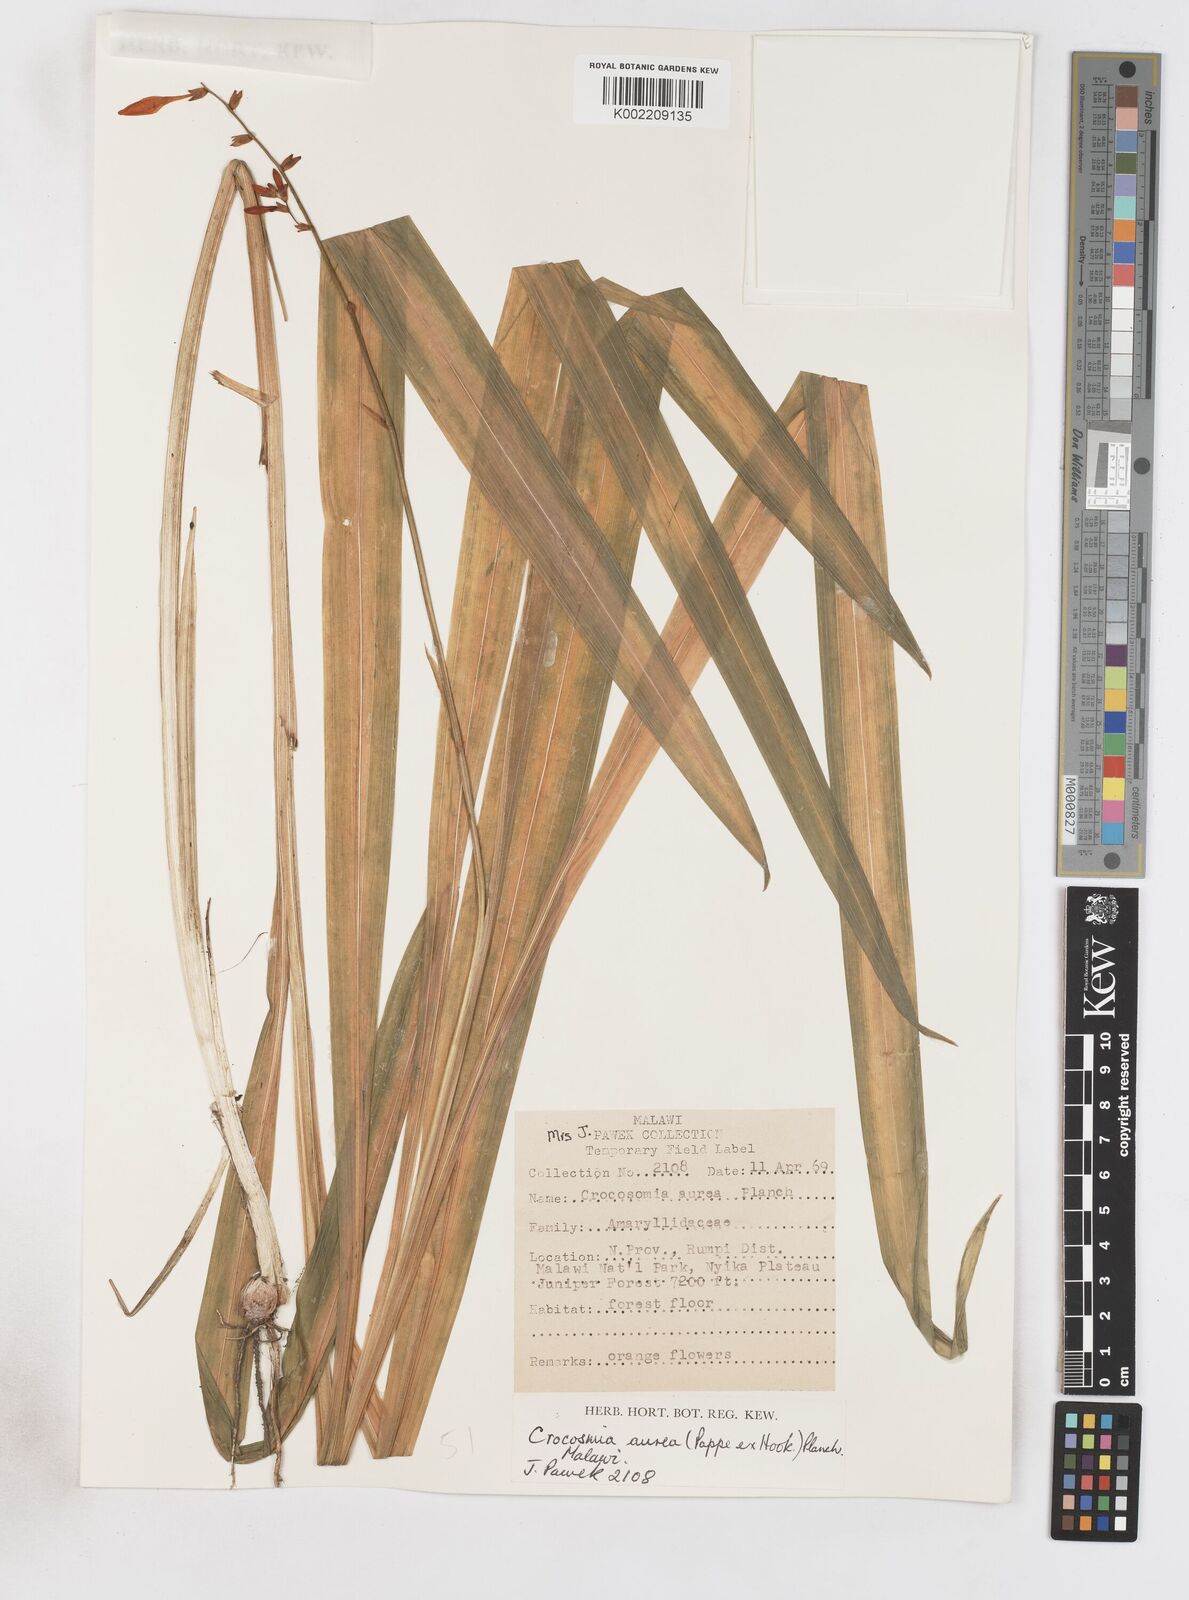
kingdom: Plantae
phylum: Tracheophyta
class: Liliopsida
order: Asparagales
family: Iridaceae
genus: Crocosmia
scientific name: Crocosmia aurea
